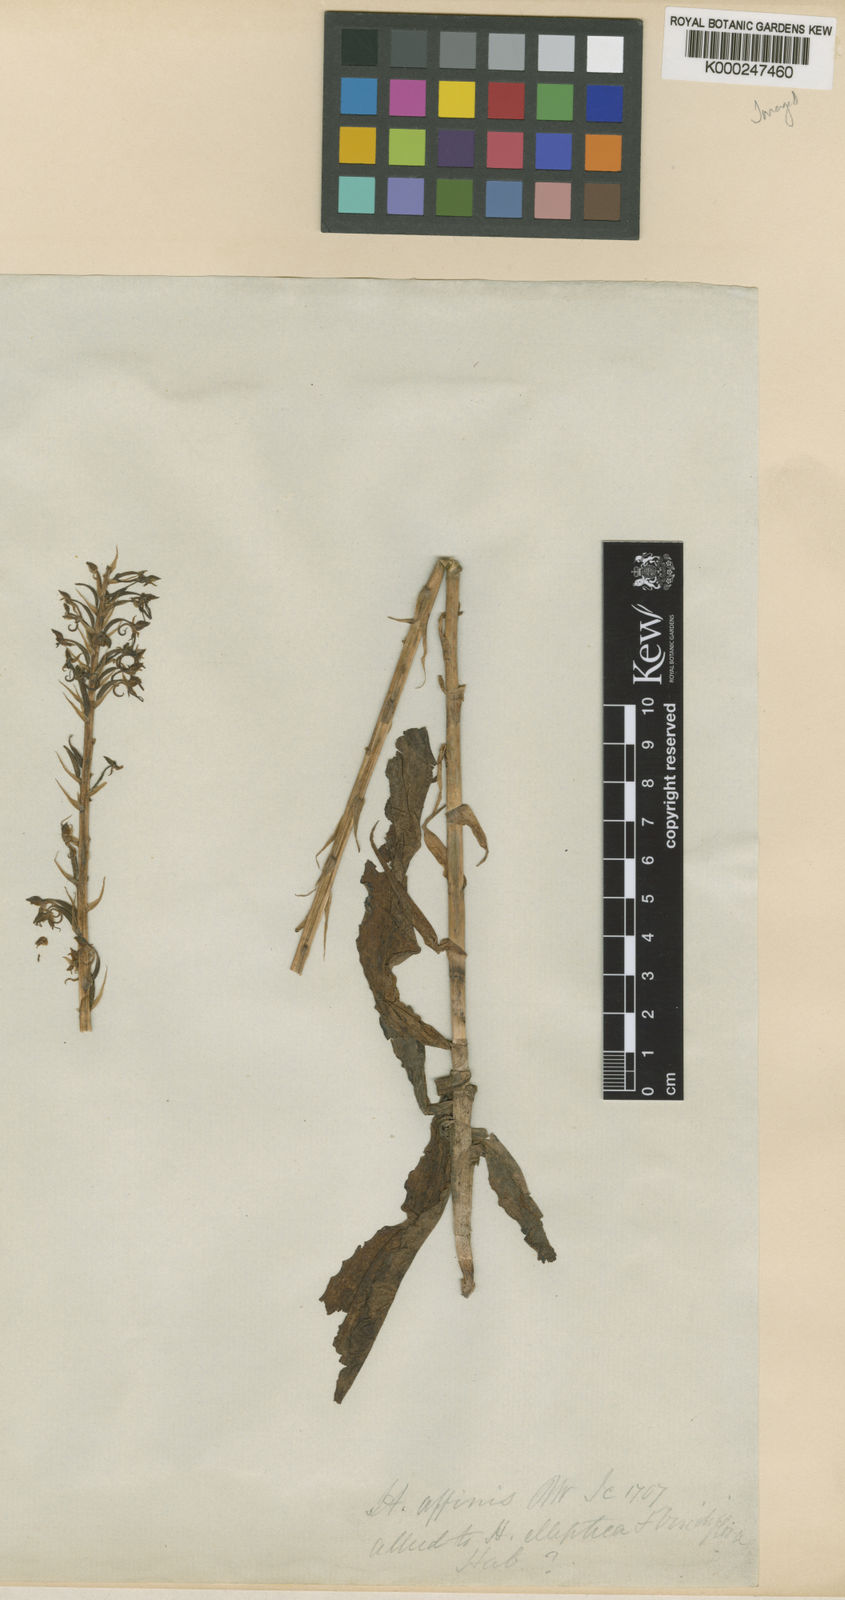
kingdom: Plantae
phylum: Tracheophyta
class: Liliopsida
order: Asparagales
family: Orchidaceae
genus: Habenaria
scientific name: Habenaria hollandiana
